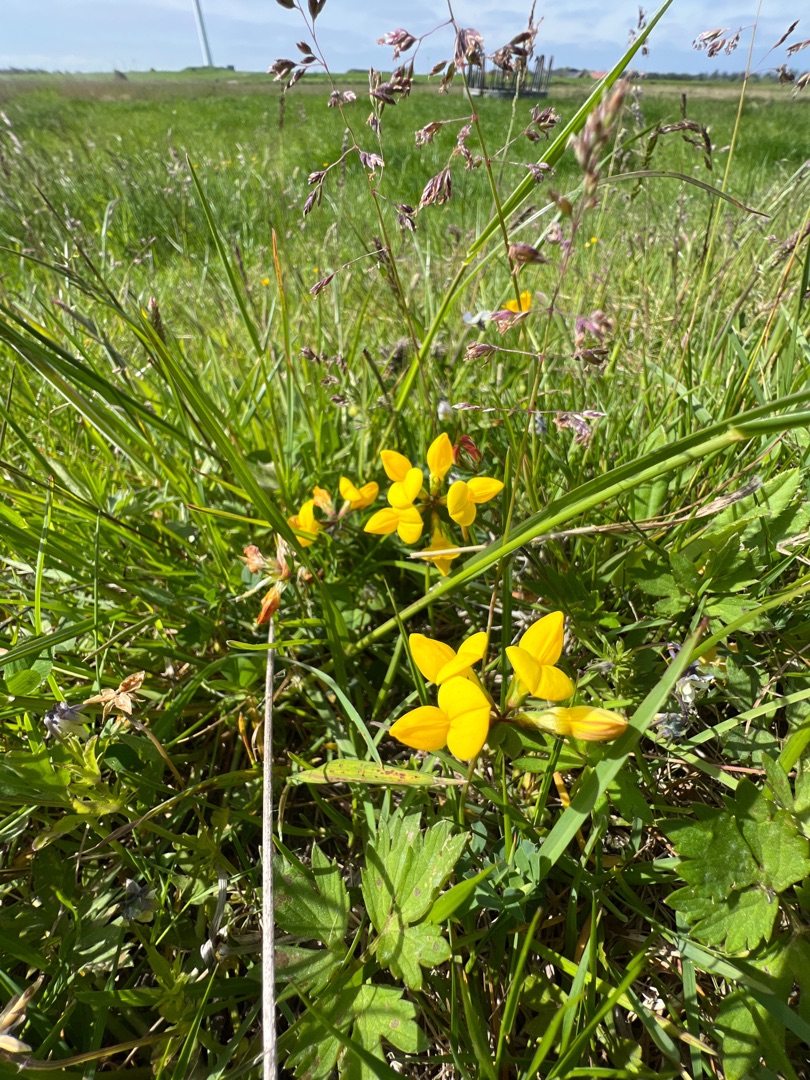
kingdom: Plantae
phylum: Tracheophyta
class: Magnoliopsida
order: Fabales
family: Fabaceae
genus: Lotus
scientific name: Lotus corniculatus
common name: Almindelig kællingetand
